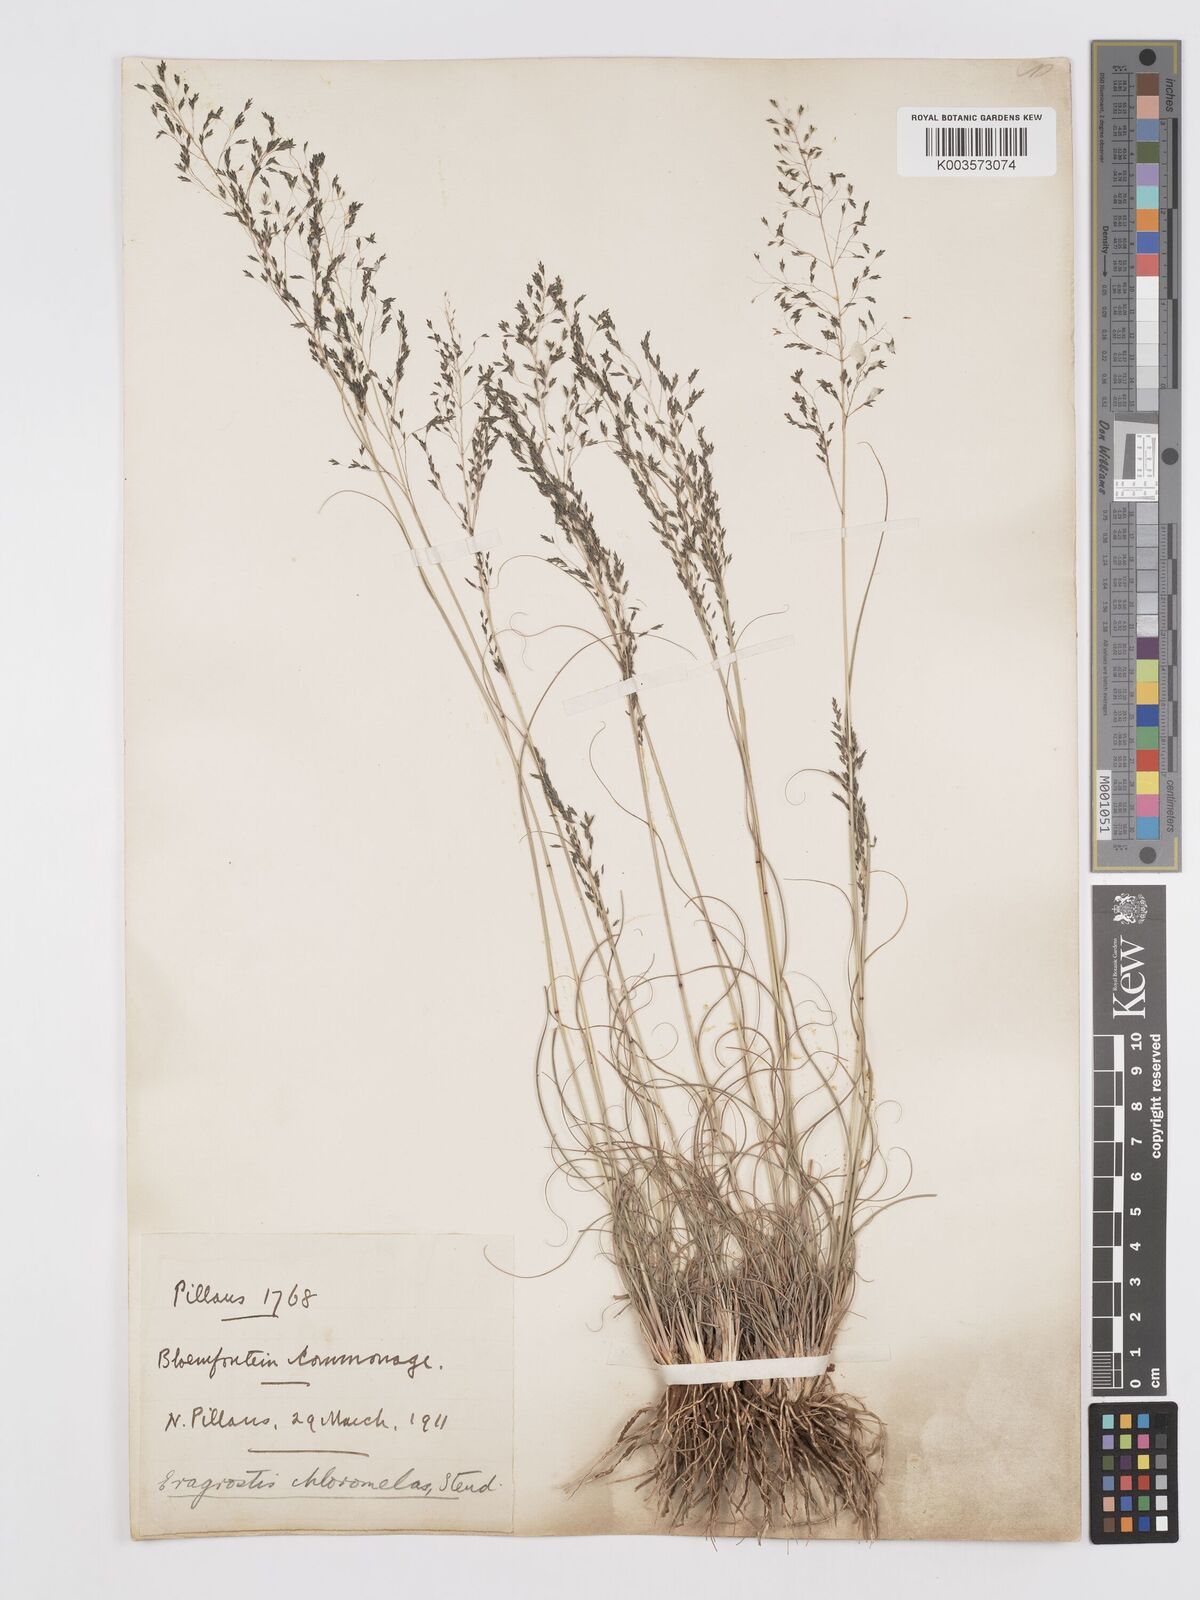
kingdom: Plantae
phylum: Tracheophyta
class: Liliopsida
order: Poales
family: Poaceae
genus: Eragrostis
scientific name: Eragrostis curvula
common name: African love-grass
